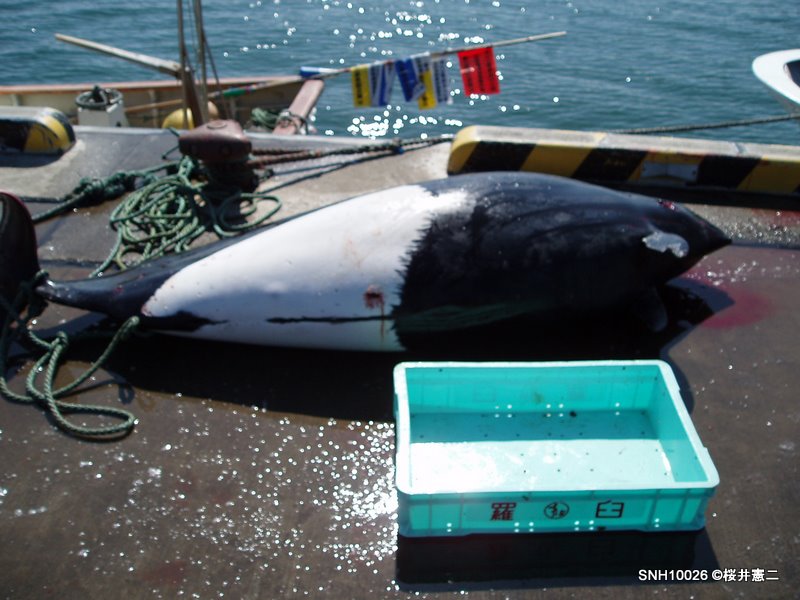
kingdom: Animalia
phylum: Chordata
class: Mammalia
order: Cetacea
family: Phocoenidae
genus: Phocoenoides
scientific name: Phocoenoides dalli
